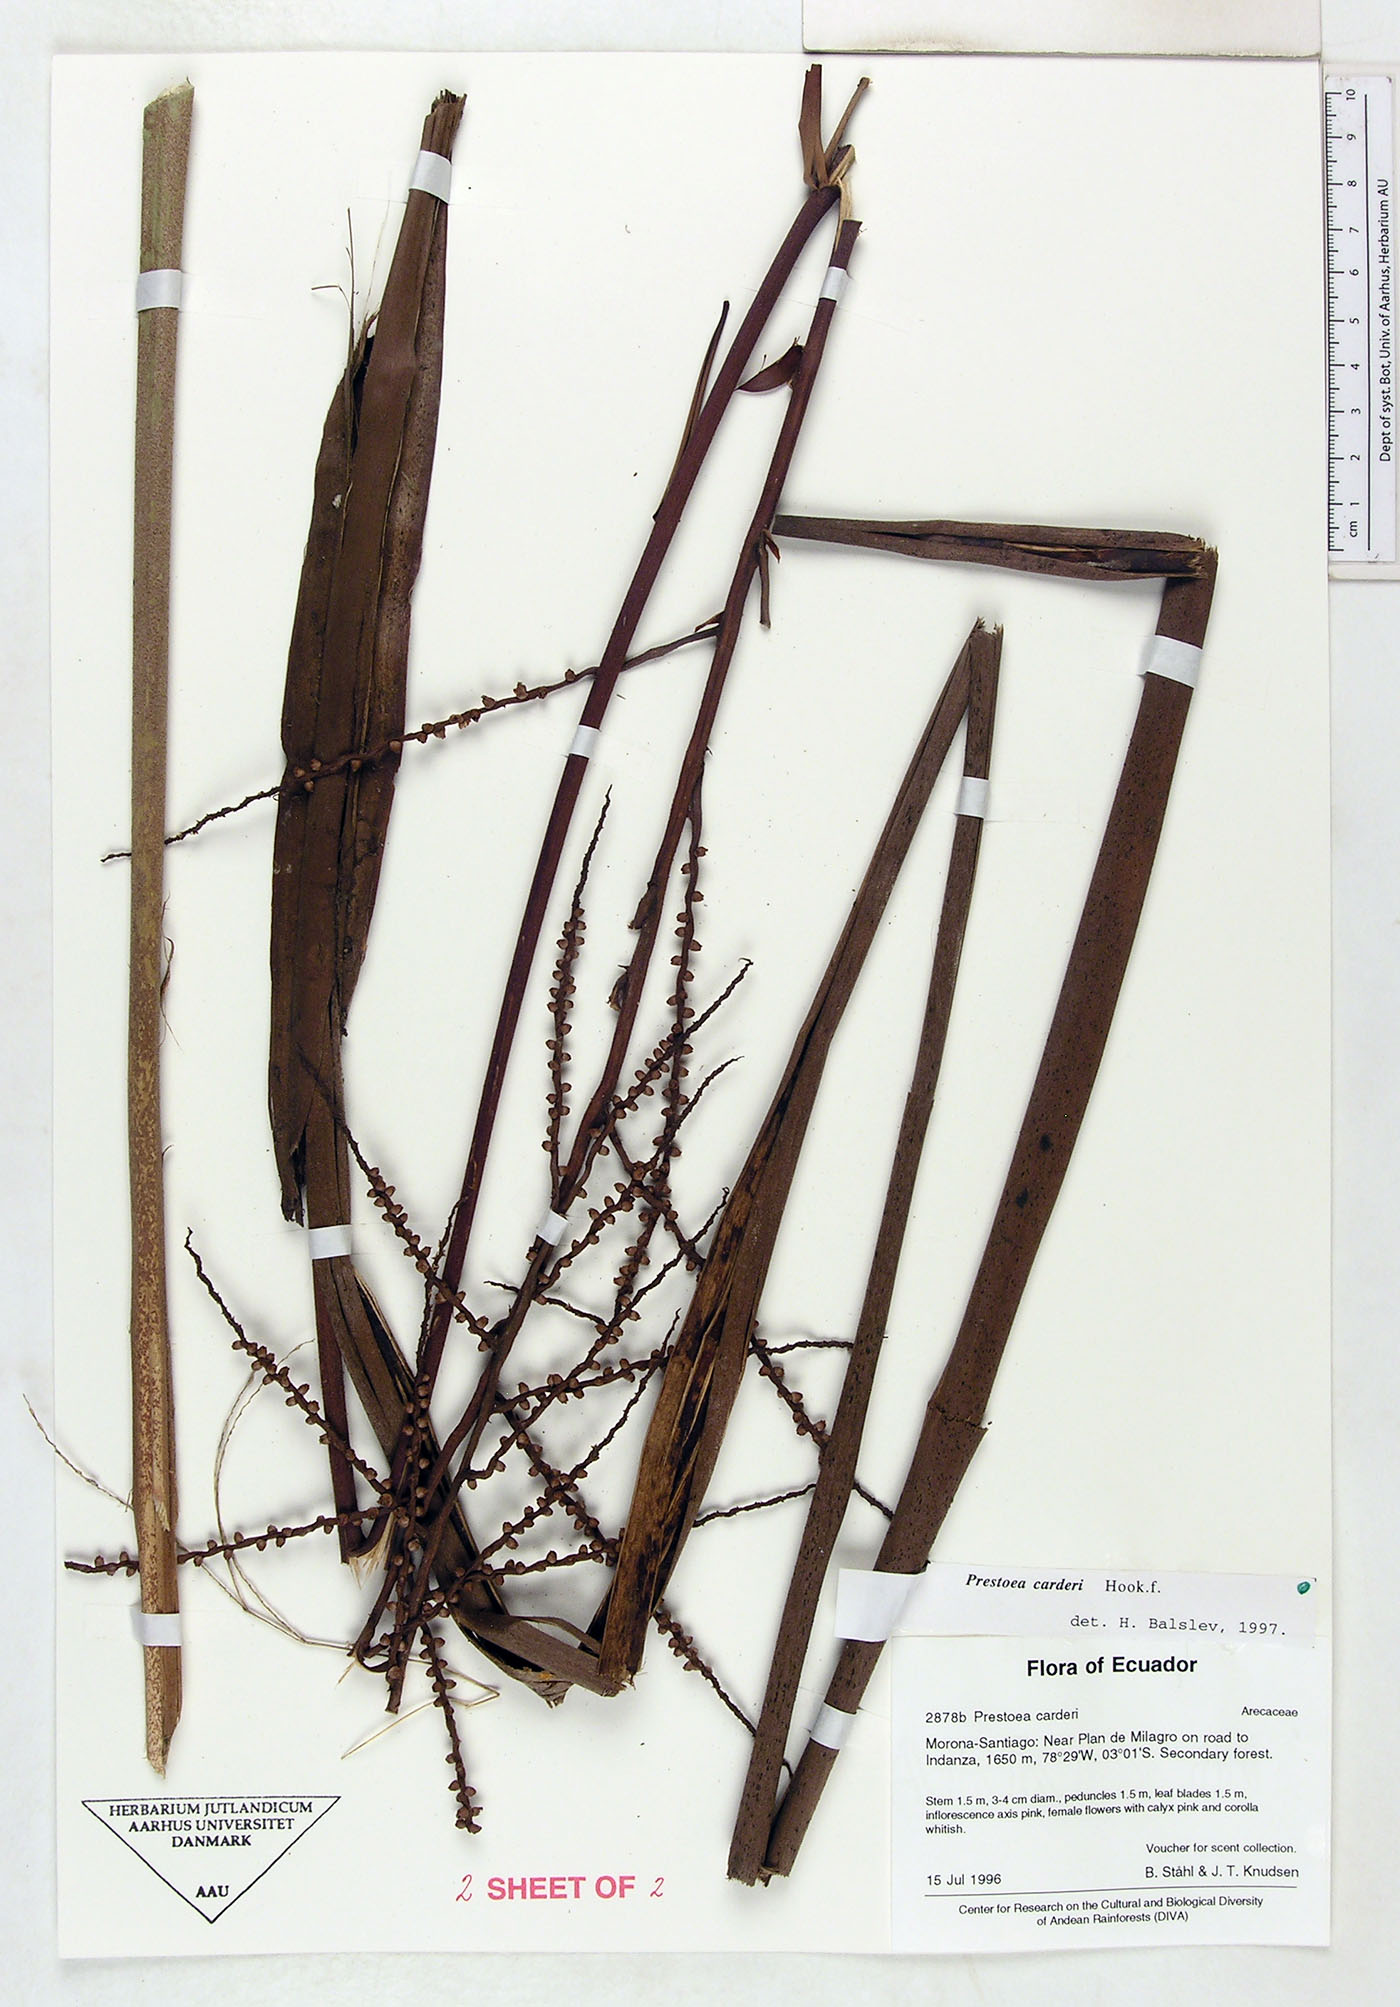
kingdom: Plantae
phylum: Tracheophyta
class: Liliopsida
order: Arecales
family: Arecaceae
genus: Prestoea
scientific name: Prestoea carderi
